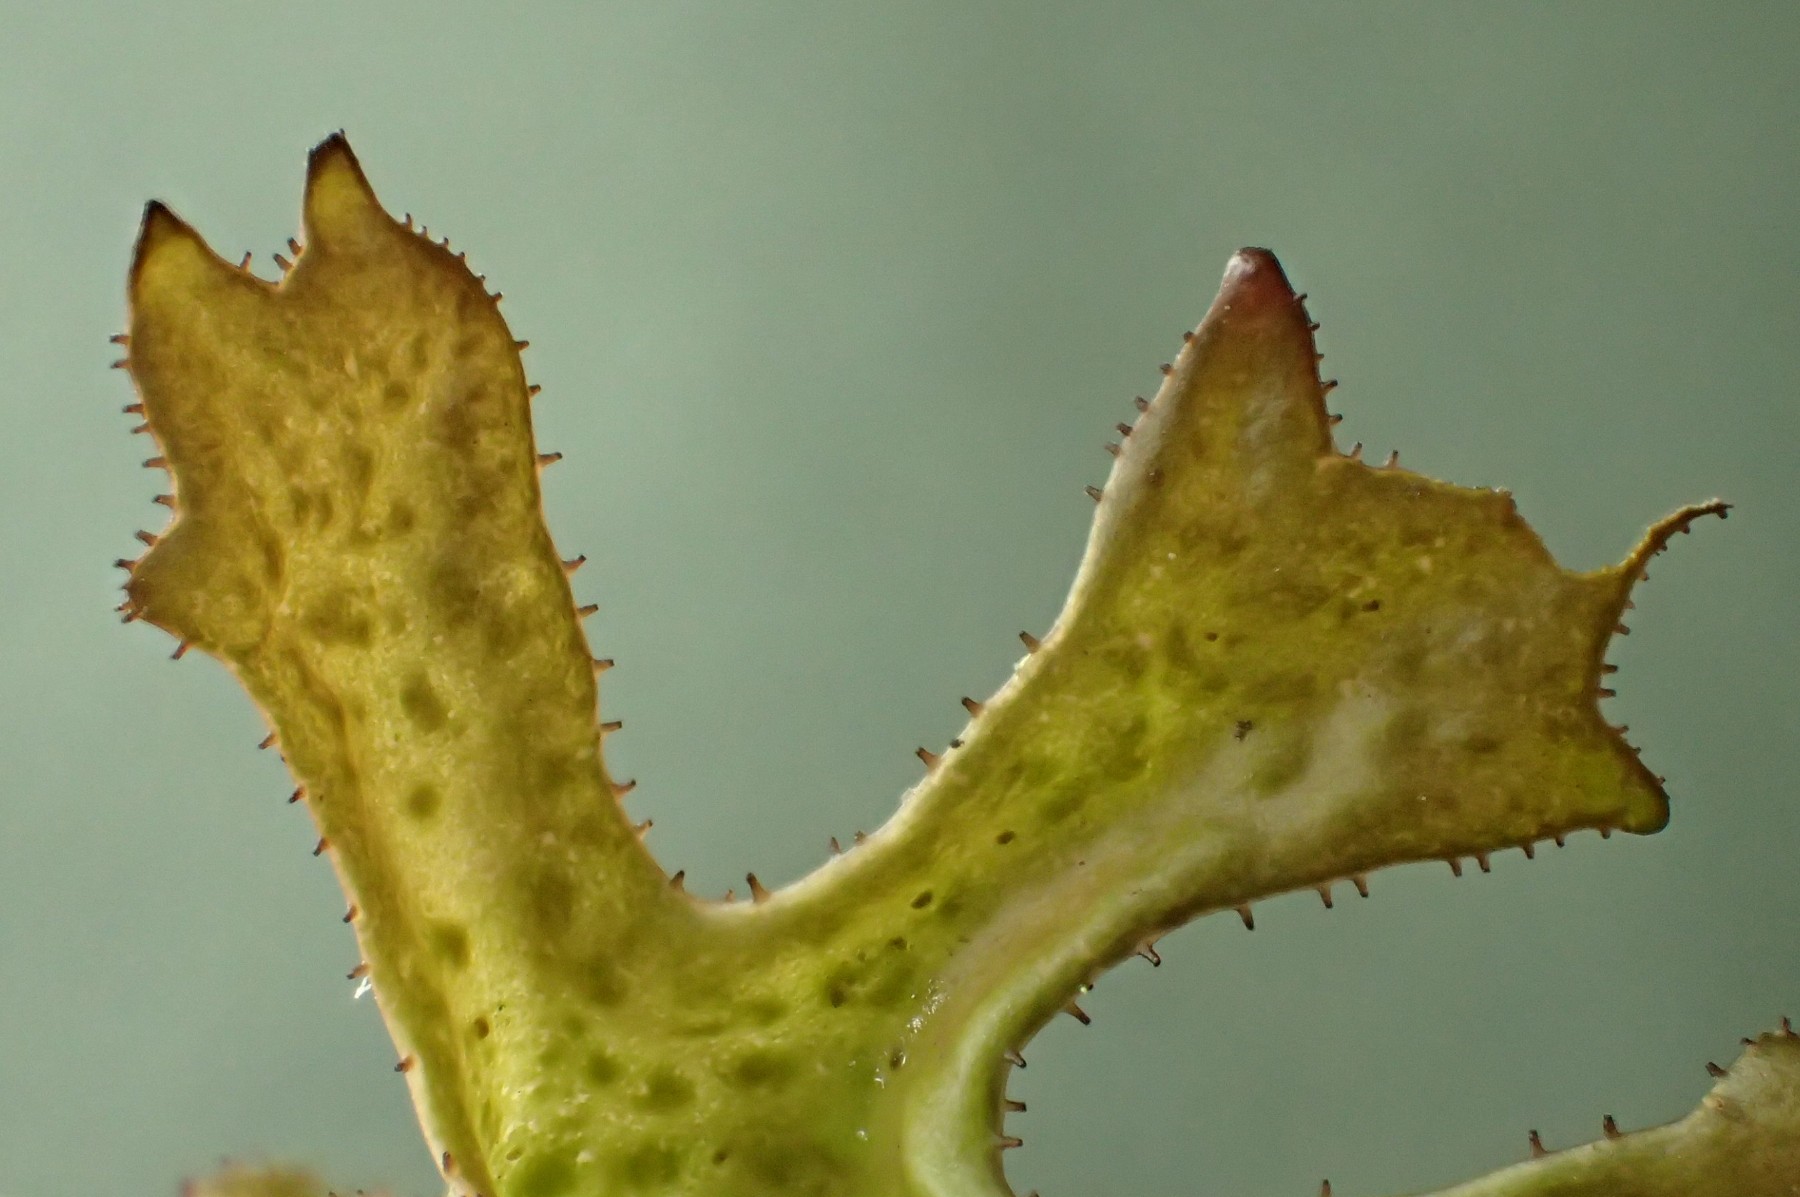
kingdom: Fungi
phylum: Ascomycota
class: Lecanoromycetes
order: Lecanorales
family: Parmeliaceae
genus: Cetraria
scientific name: Cetraria islandica
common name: islandsk kruslav
